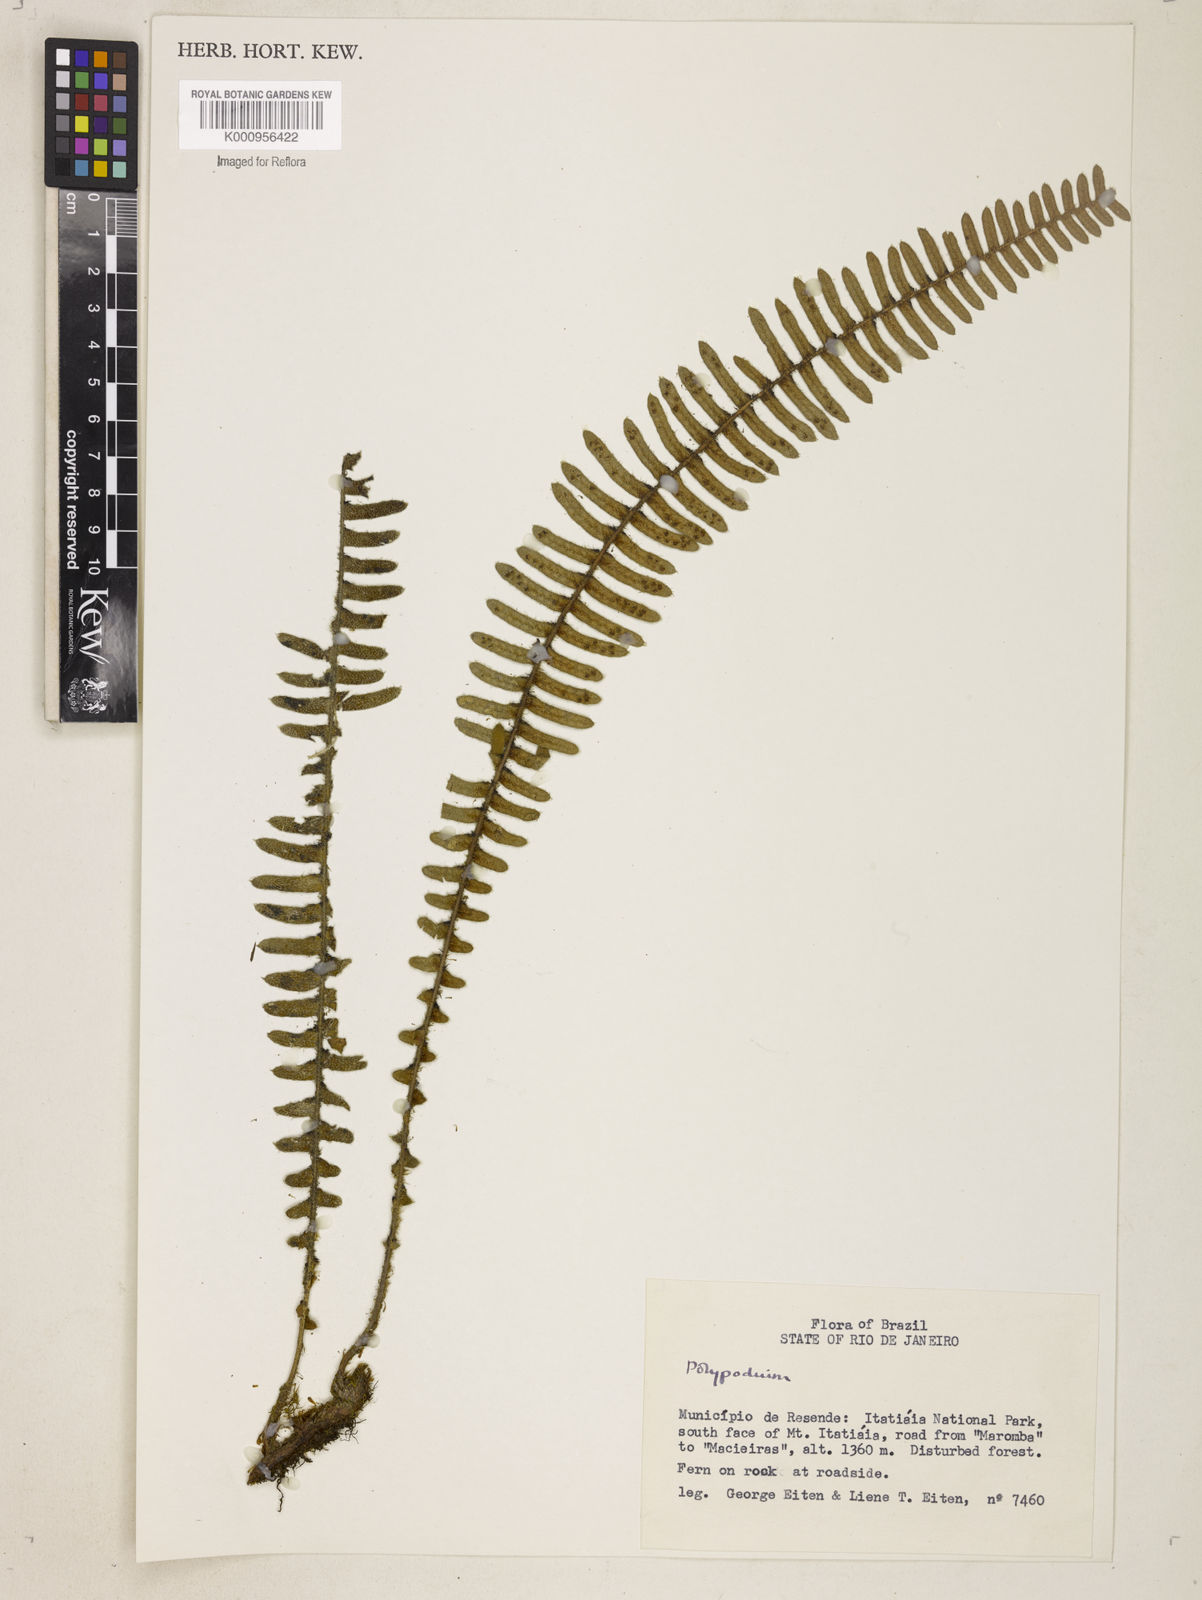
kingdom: Plantae
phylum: Tracheophyta
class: Polypodiopsida
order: Polypodiales
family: Polypodiaceae
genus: Polypodium
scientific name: Polypodium
